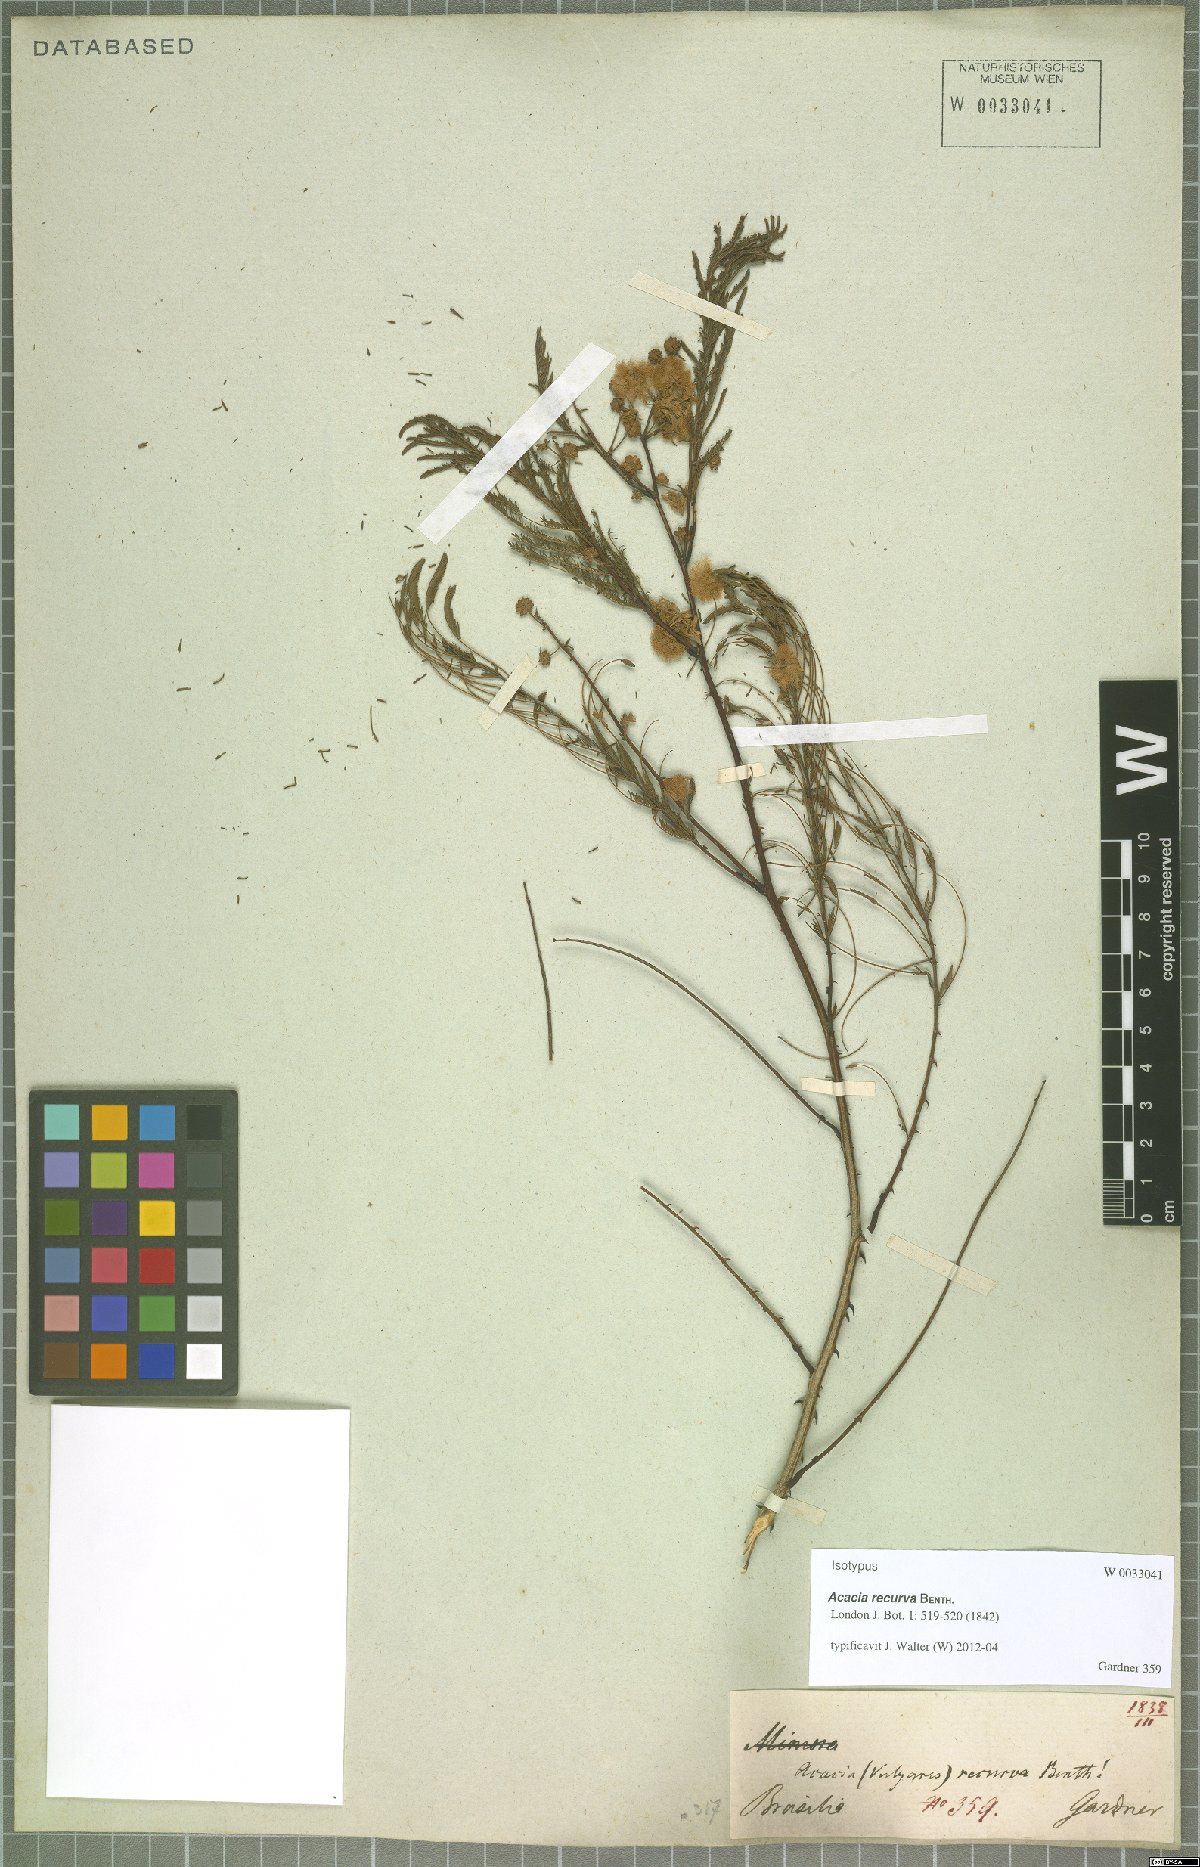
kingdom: Plantae
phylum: Tracheophyta
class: Magnoliopsida
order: Fabales
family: Fabaceae
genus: Senegalia
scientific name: Senegalia recurva
